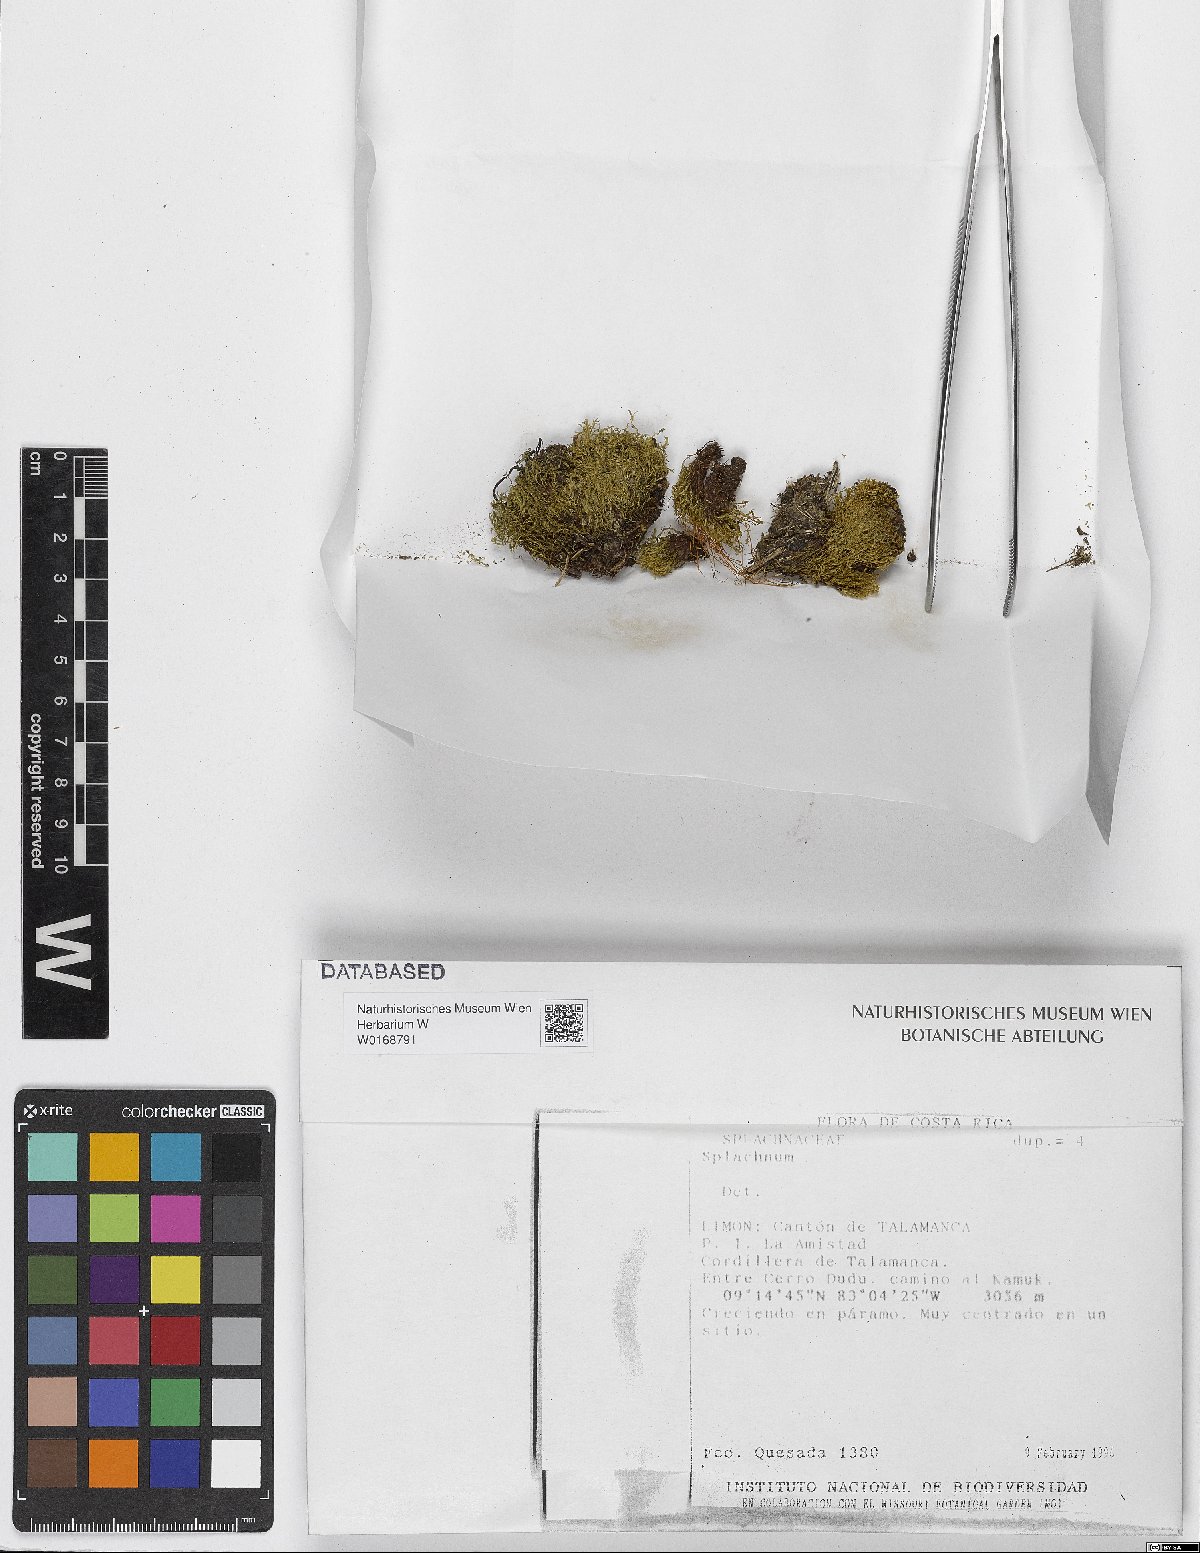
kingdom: Plantae
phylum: Bryophyta
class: Bryopsida
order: Splachnales
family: Splachnaceae
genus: Splachnum
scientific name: Splachnum
